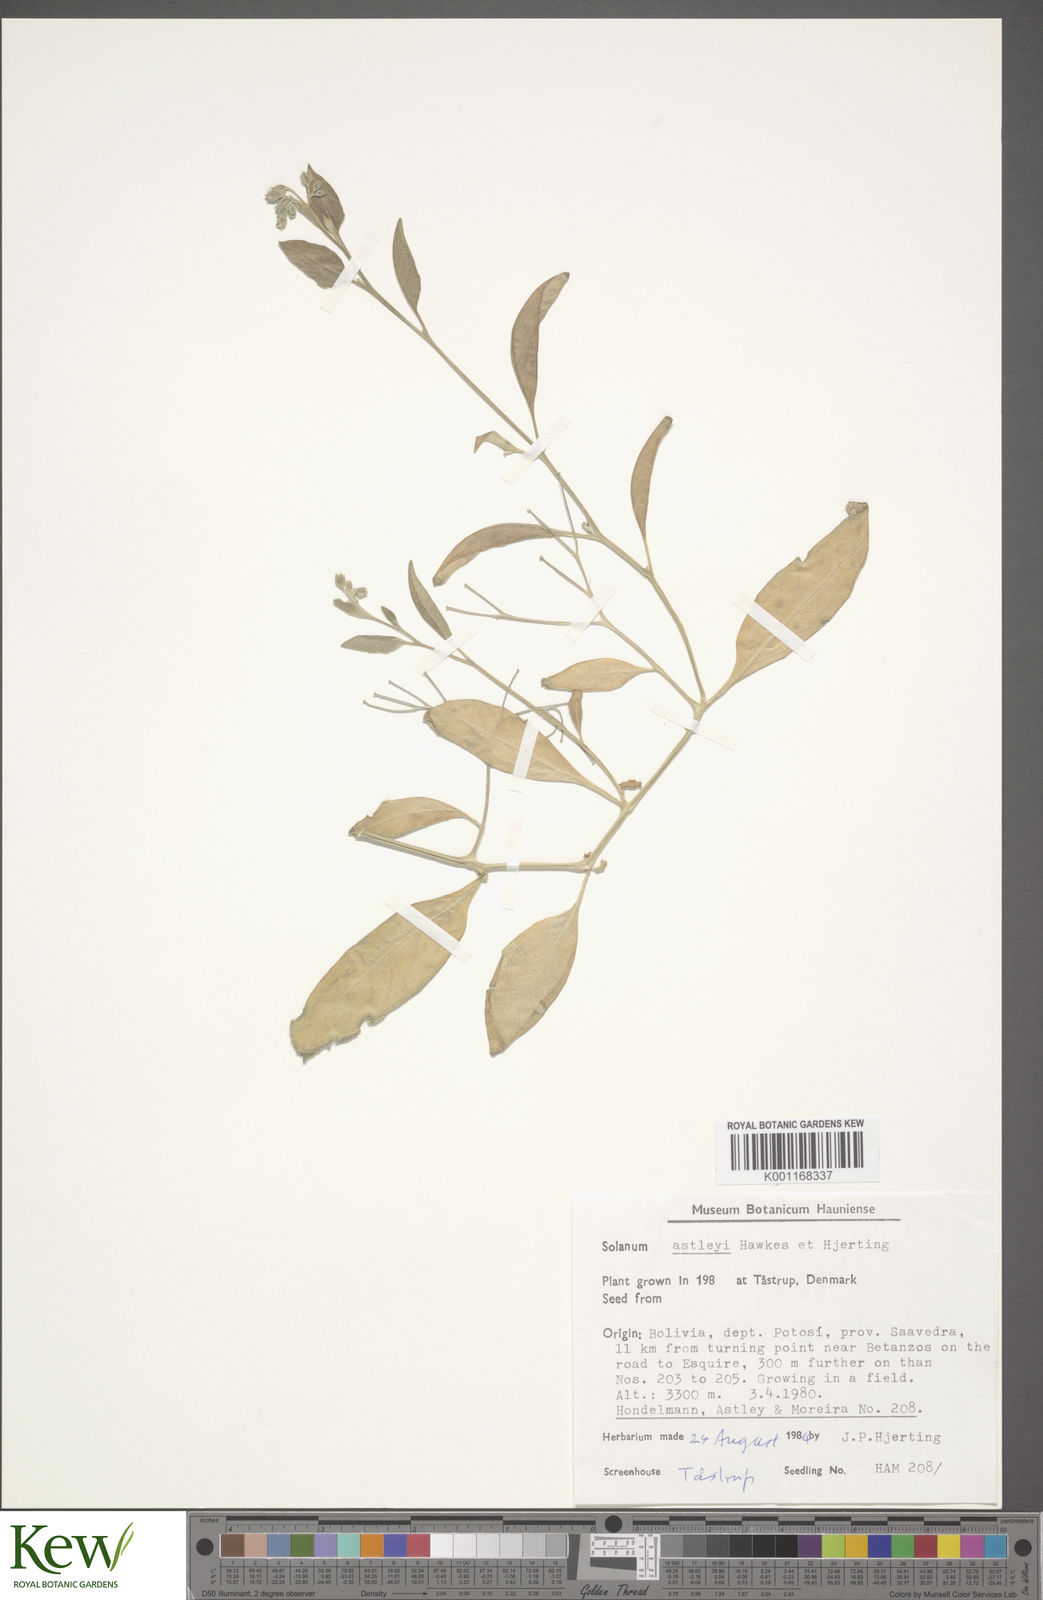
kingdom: Plantae
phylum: Tracheophyta
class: Magnoliopsida
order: Solanales
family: Solanaceae
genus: Solanum
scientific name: Solanum boliviense
